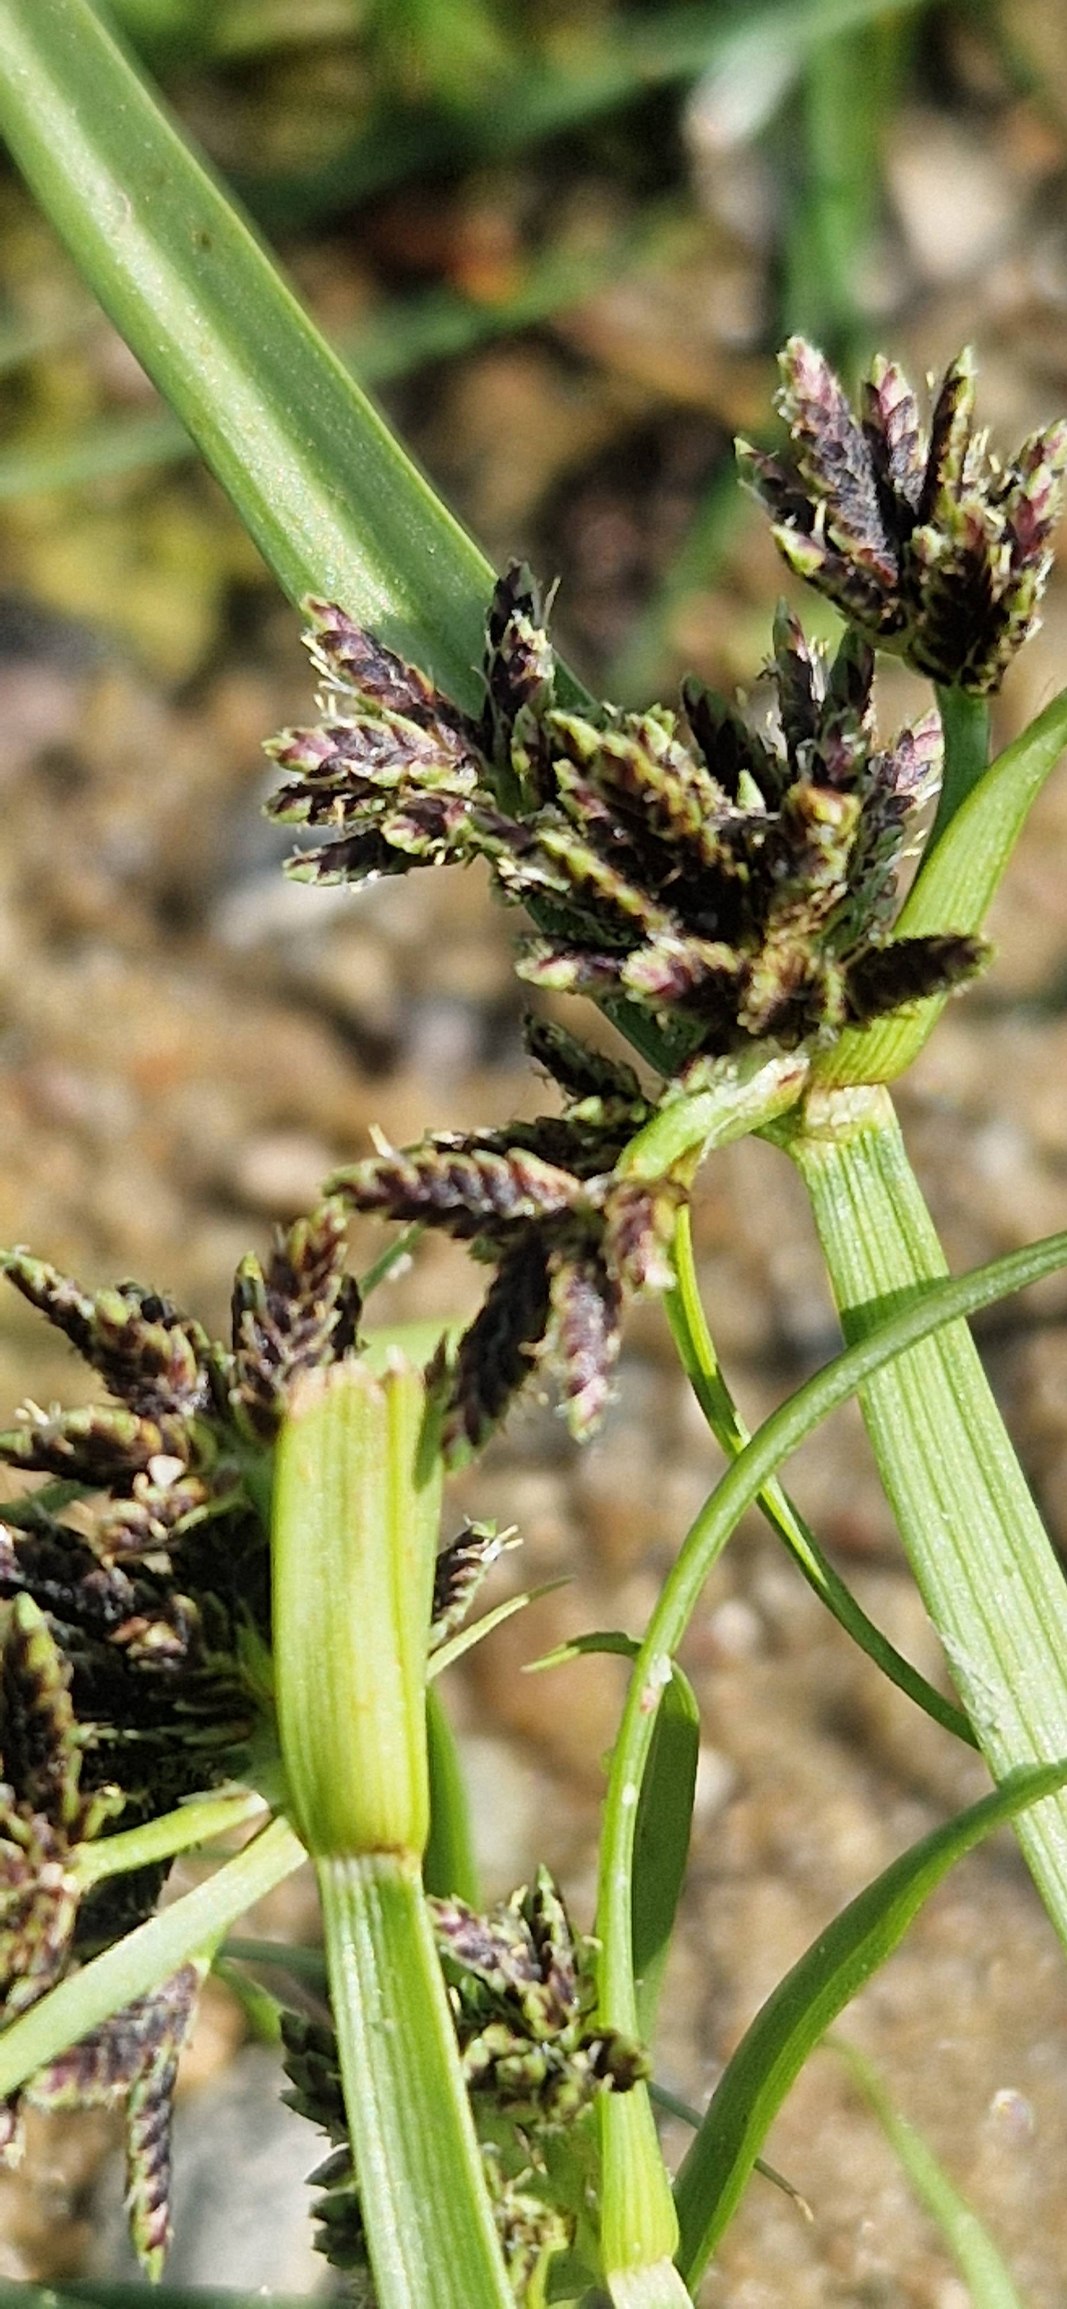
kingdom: Plantae
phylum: Tracheophyta
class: Liliopsida
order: Poales
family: Cyperaceae
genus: Cyperus
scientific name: Cyperus fuscus
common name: Brun fladaks
